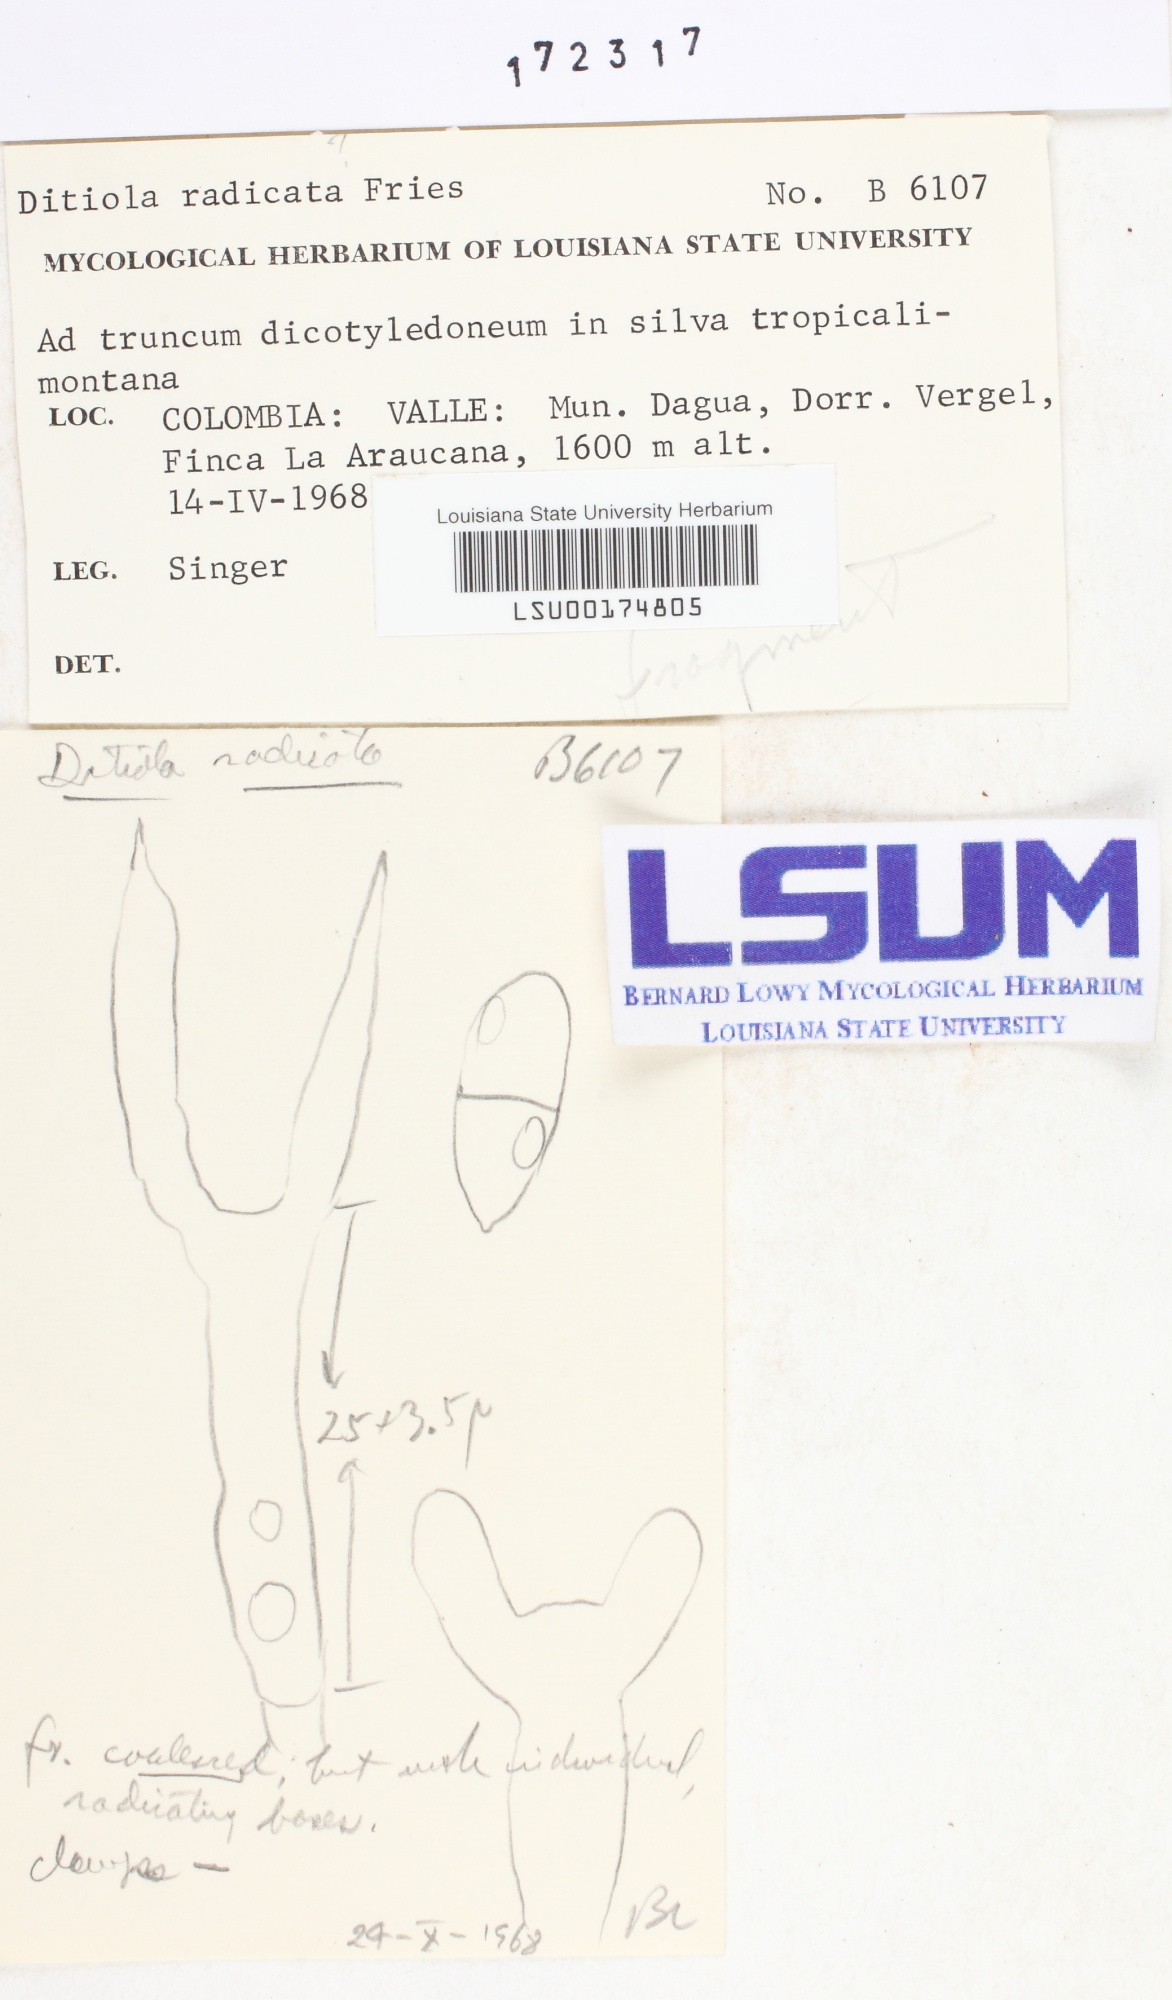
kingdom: Fungi
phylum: Basidiomycota
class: Dacrymycetes
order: Dacrymycetales
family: Dacrymycetaceae
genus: Ditiola
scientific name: Ditiola radicata
